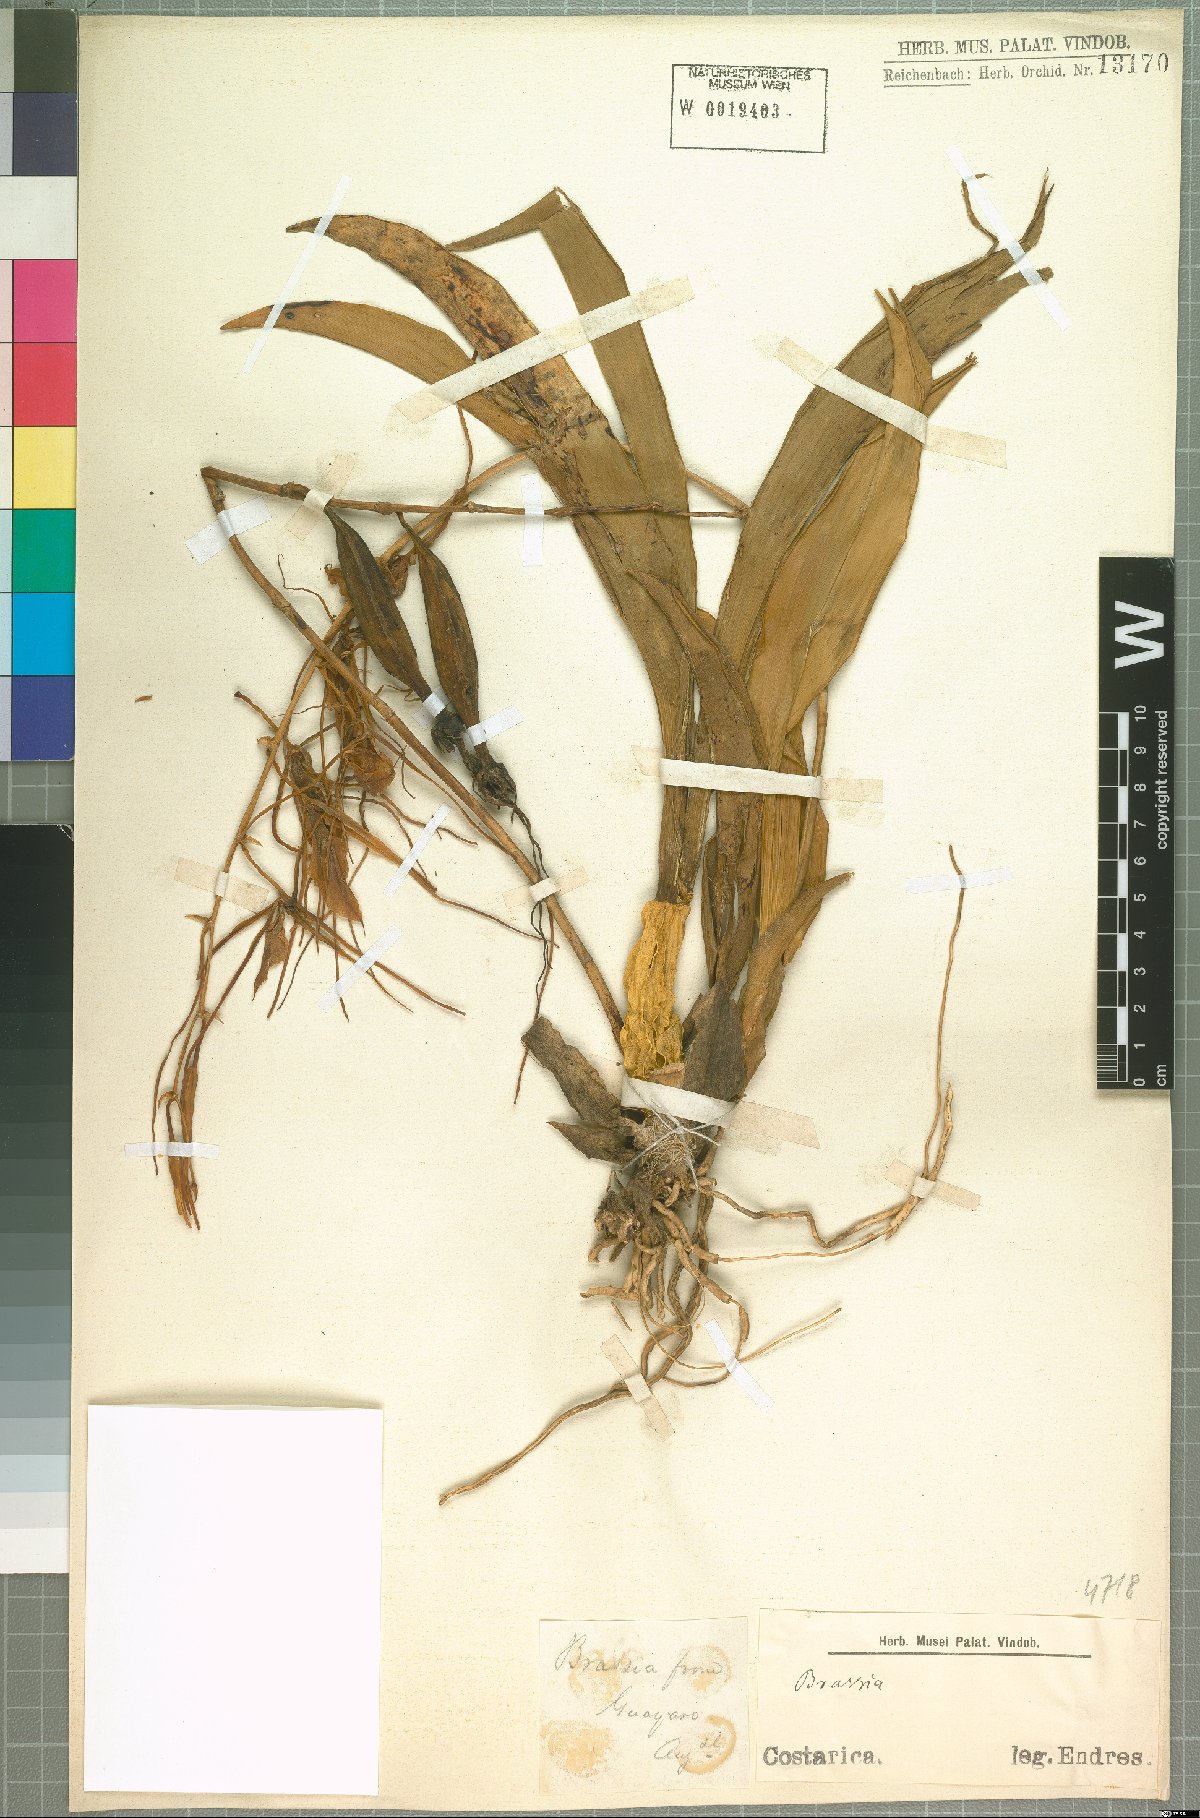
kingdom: Plantae
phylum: Tracheophyta
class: Liliopsida
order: Asparagales
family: Orchidaceae
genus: Brassia
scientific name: Brassia
